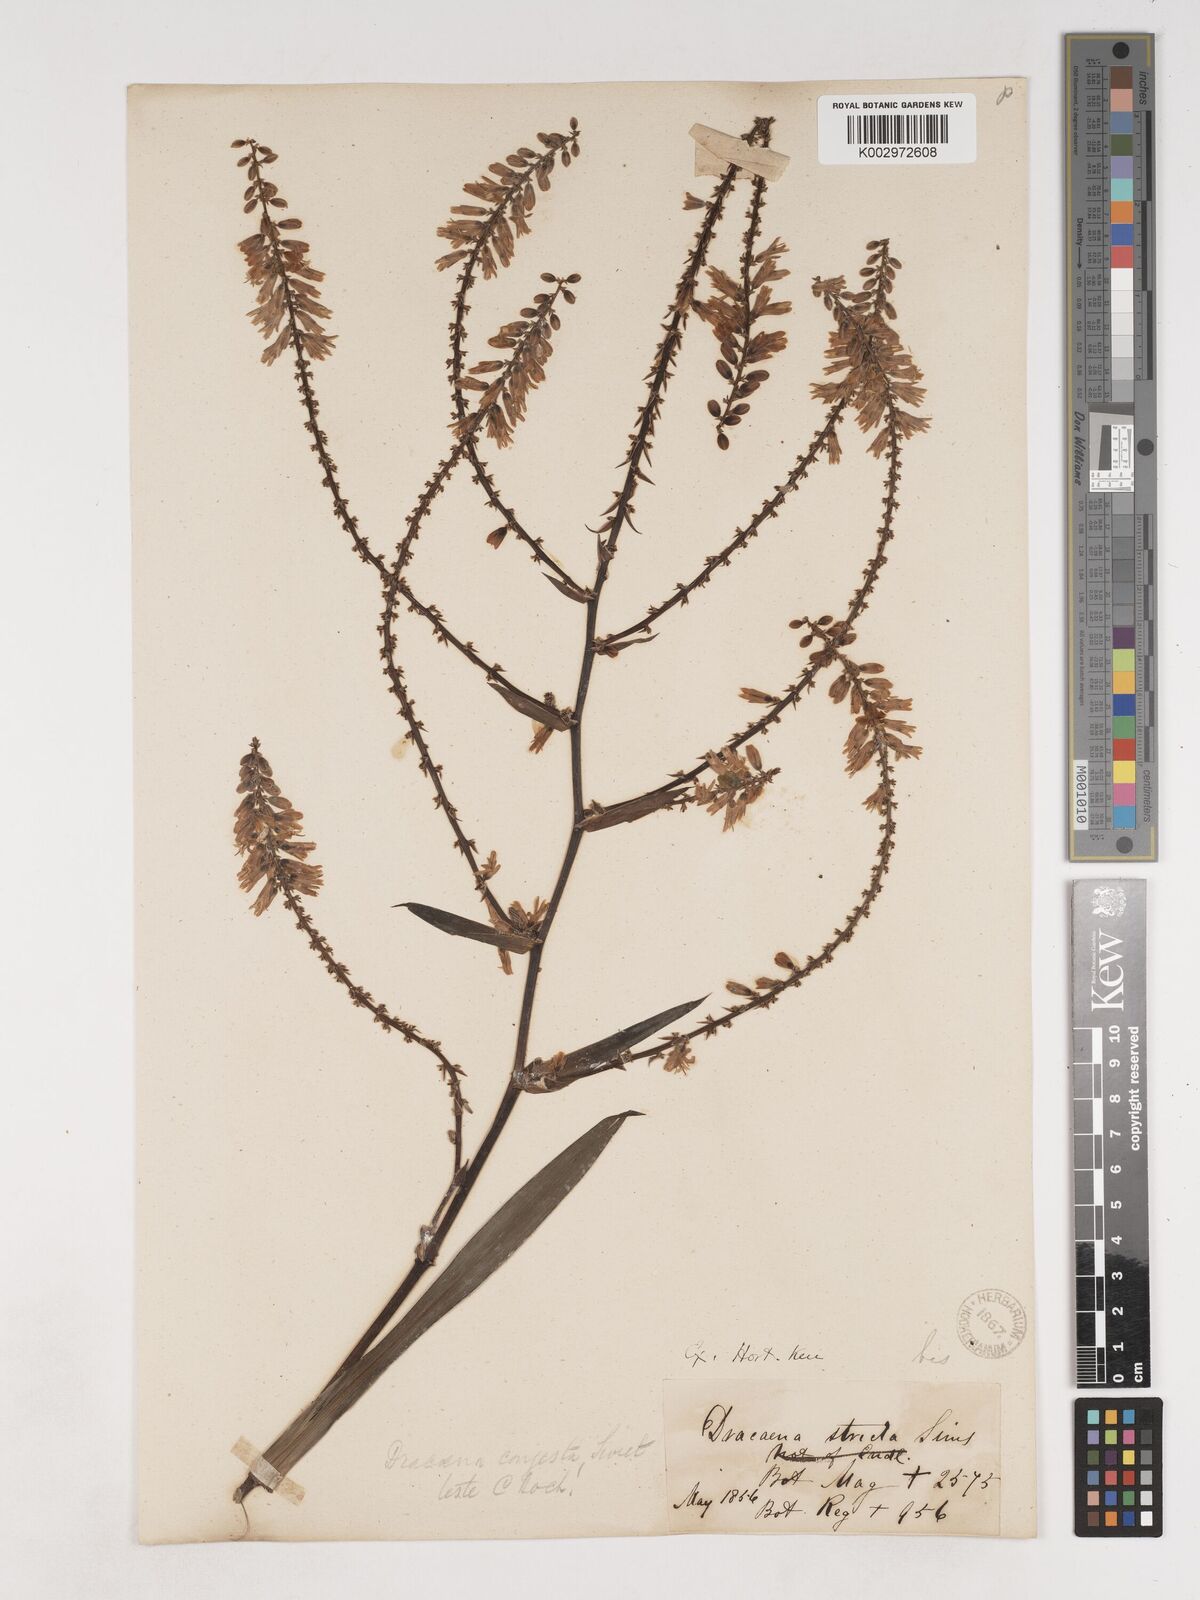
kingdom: Plantae
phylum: Tracheophyta
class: Liliopsida
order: Asparagales
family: Asparagaceae
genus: Cordyline
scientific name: Cordyline stricta
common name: Narrow-leaf palm-lily
